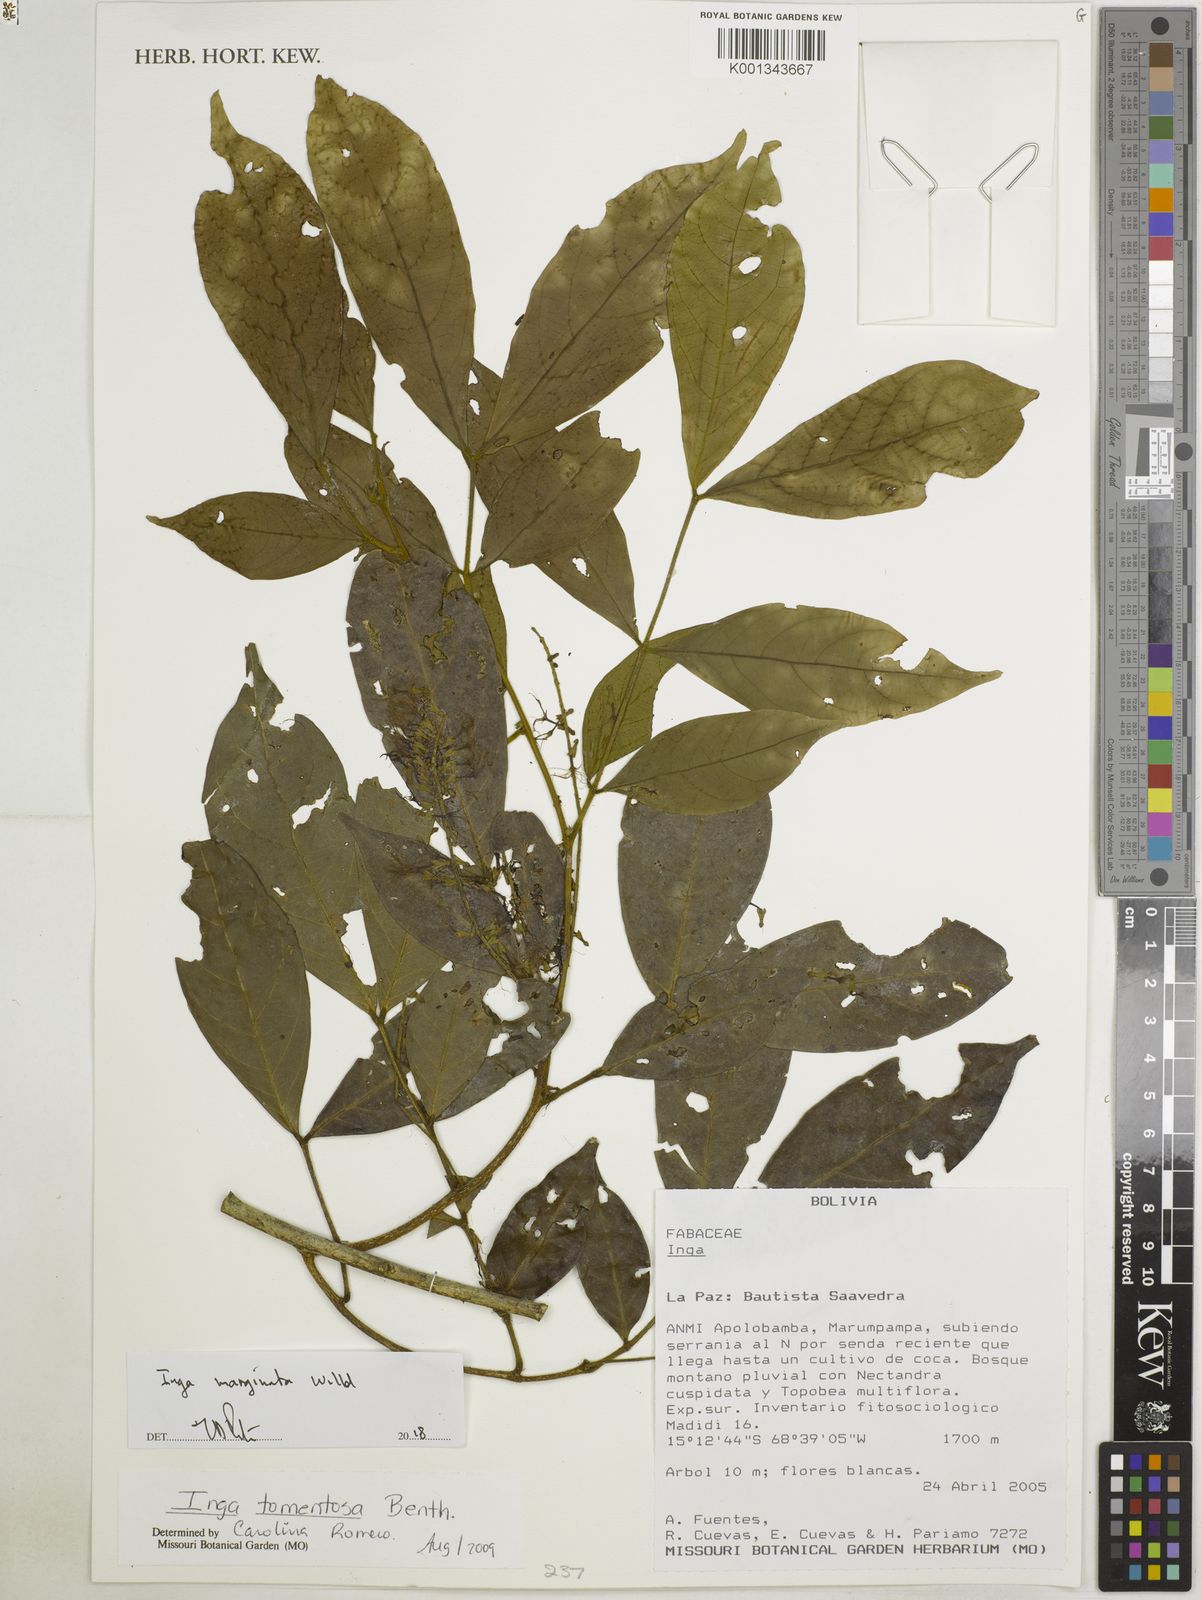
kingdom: Plantae
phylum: Tracheophyta
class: Magnoliopsida
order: Fabales
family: Fabaceae
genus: Inga
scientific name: Inga tomentosa
